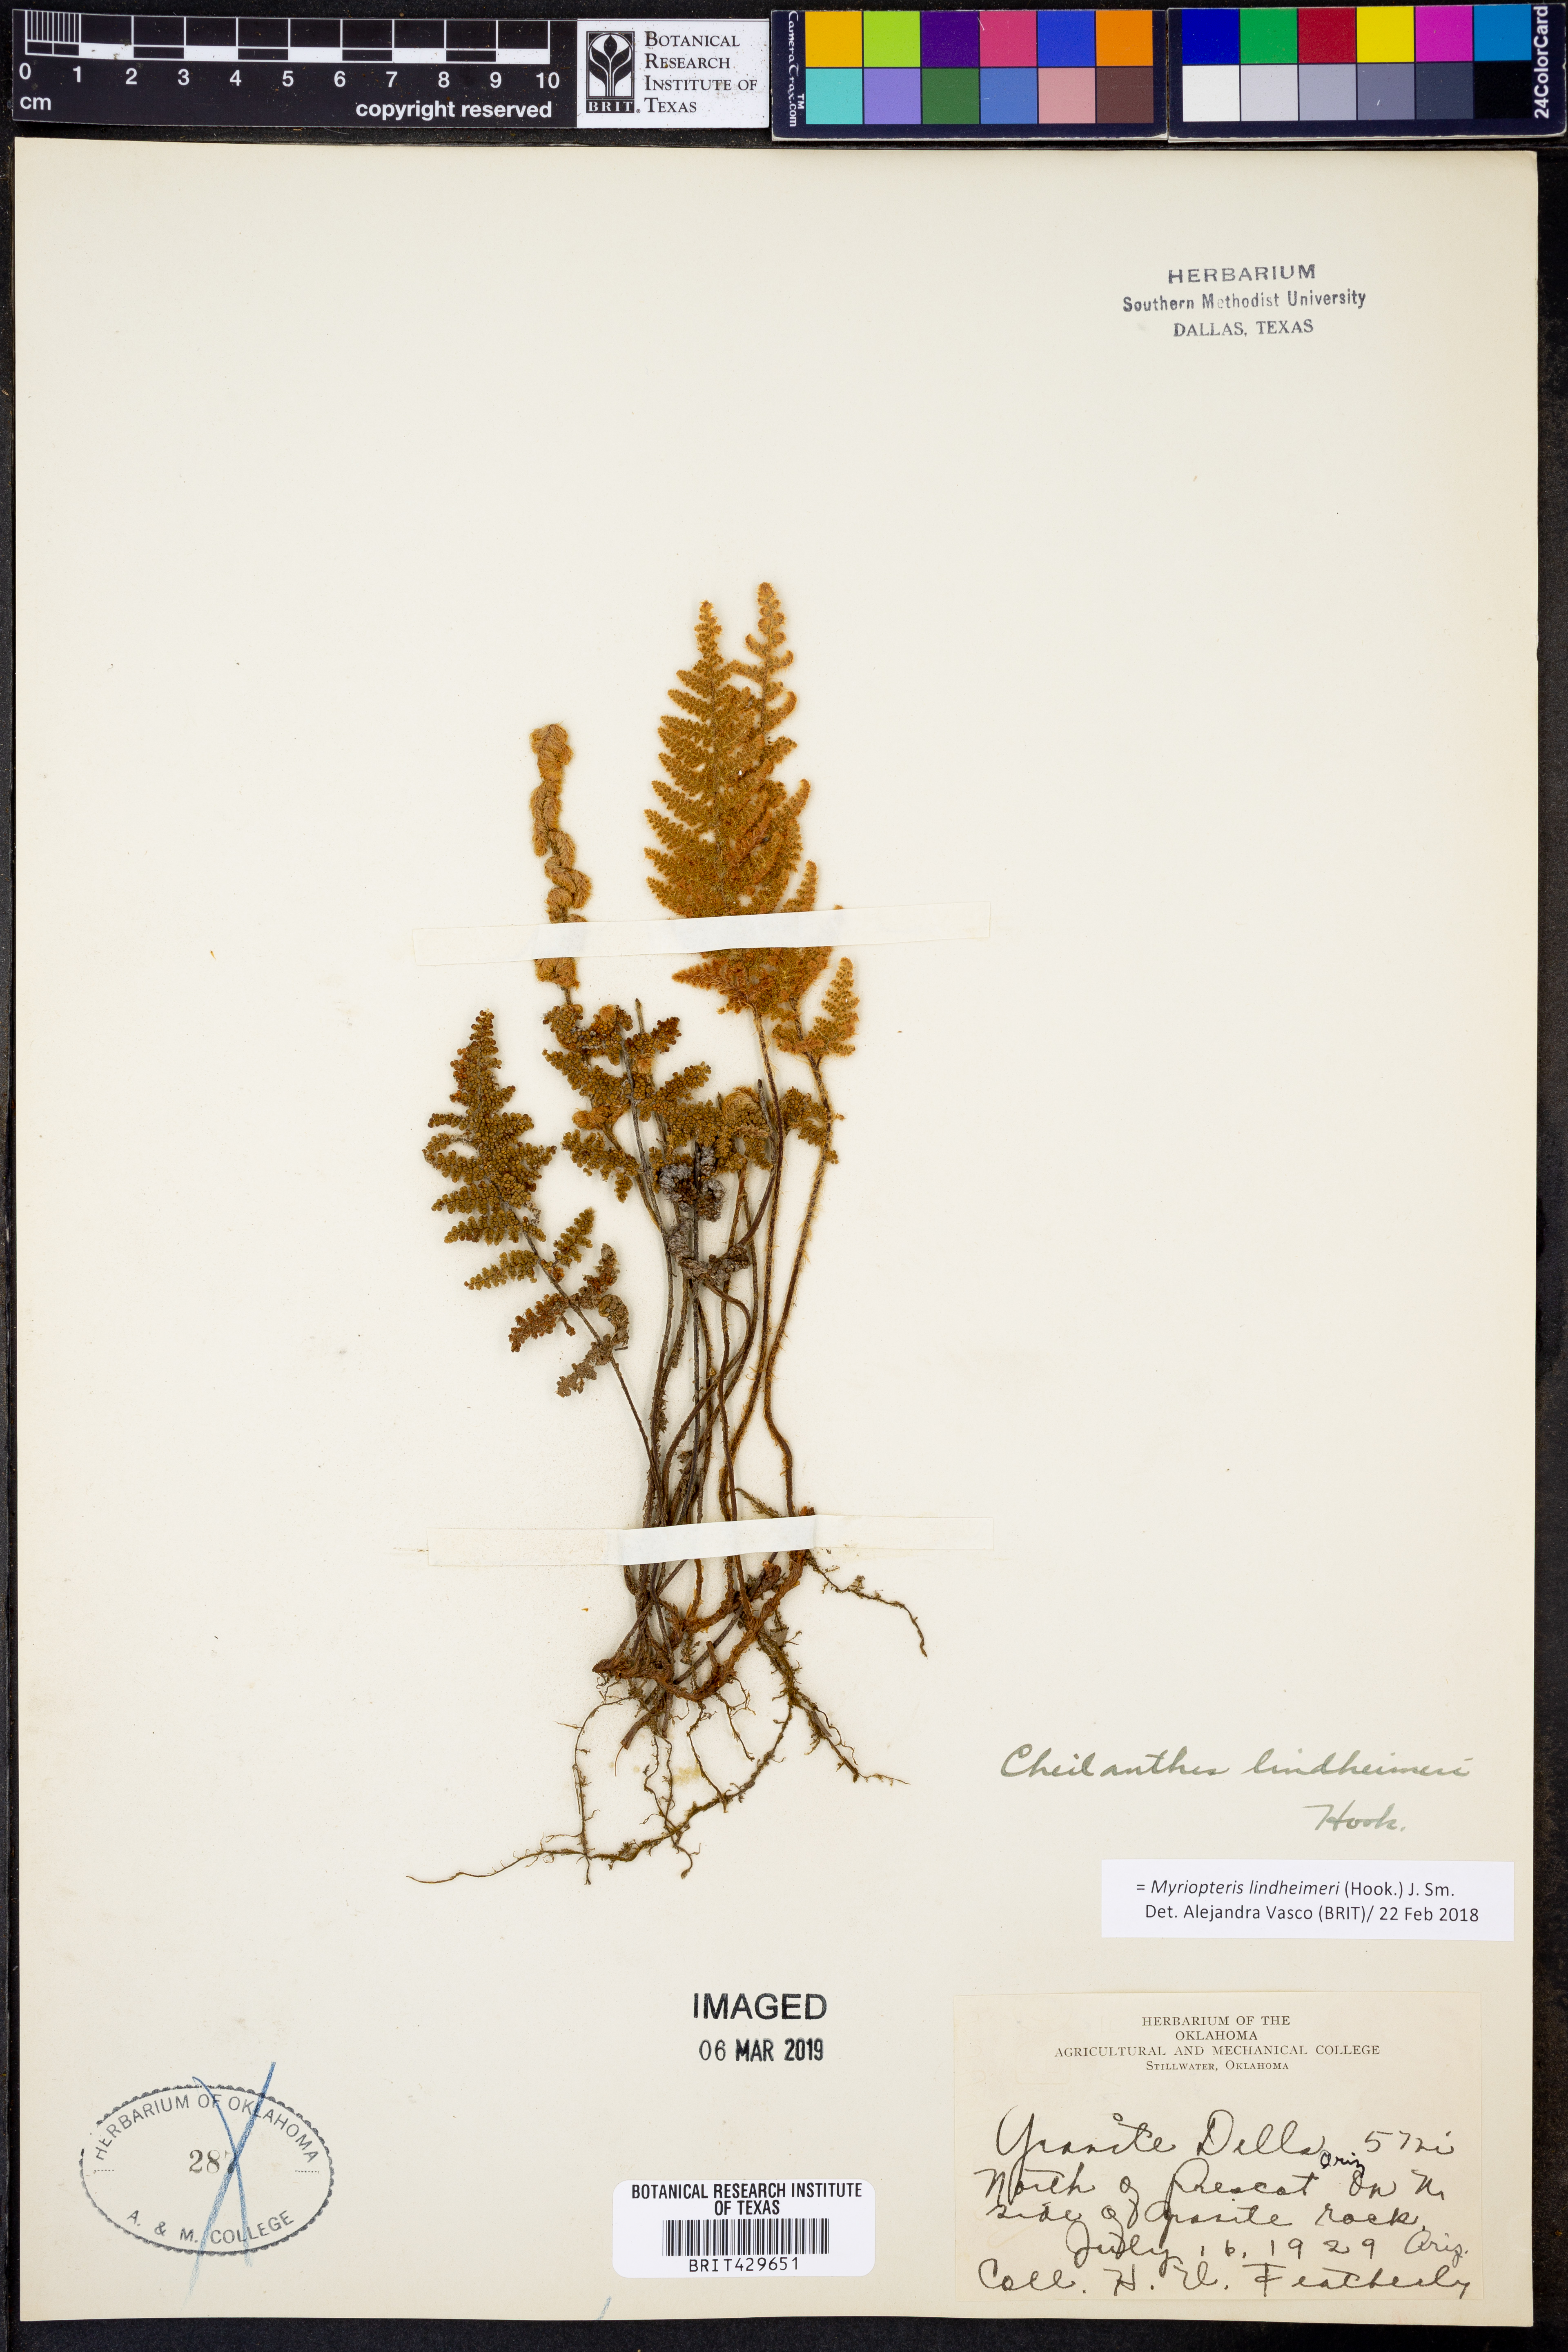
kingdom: Plantae
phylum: Tracheophyta
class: Polypodiopsida
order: Polypodiales
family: Pteridaceae
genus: Myriopteris
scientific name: Myriopteris lindheimeri
